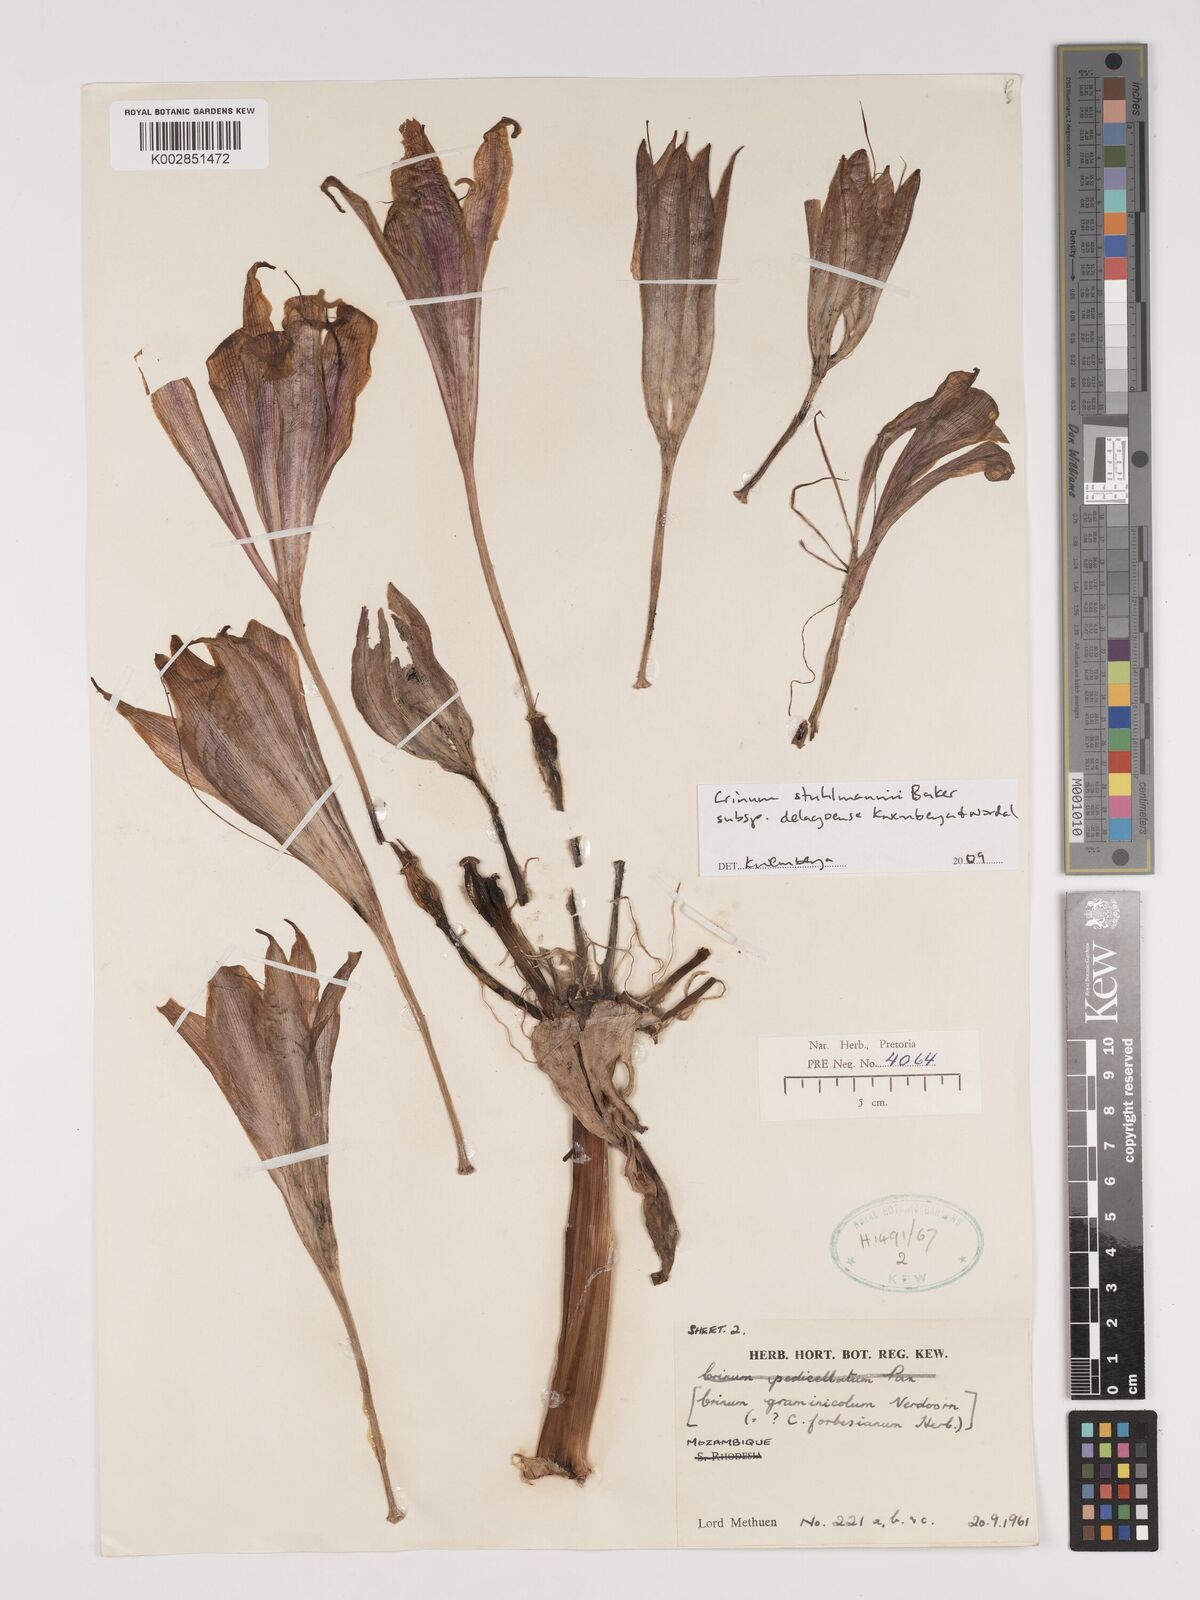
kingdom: Plantae
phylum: Tracheophyta
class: Liliopsida
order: Asparagales
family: Amaryllidaceae
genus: Crinum
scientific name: Crinum stuhlmannii
